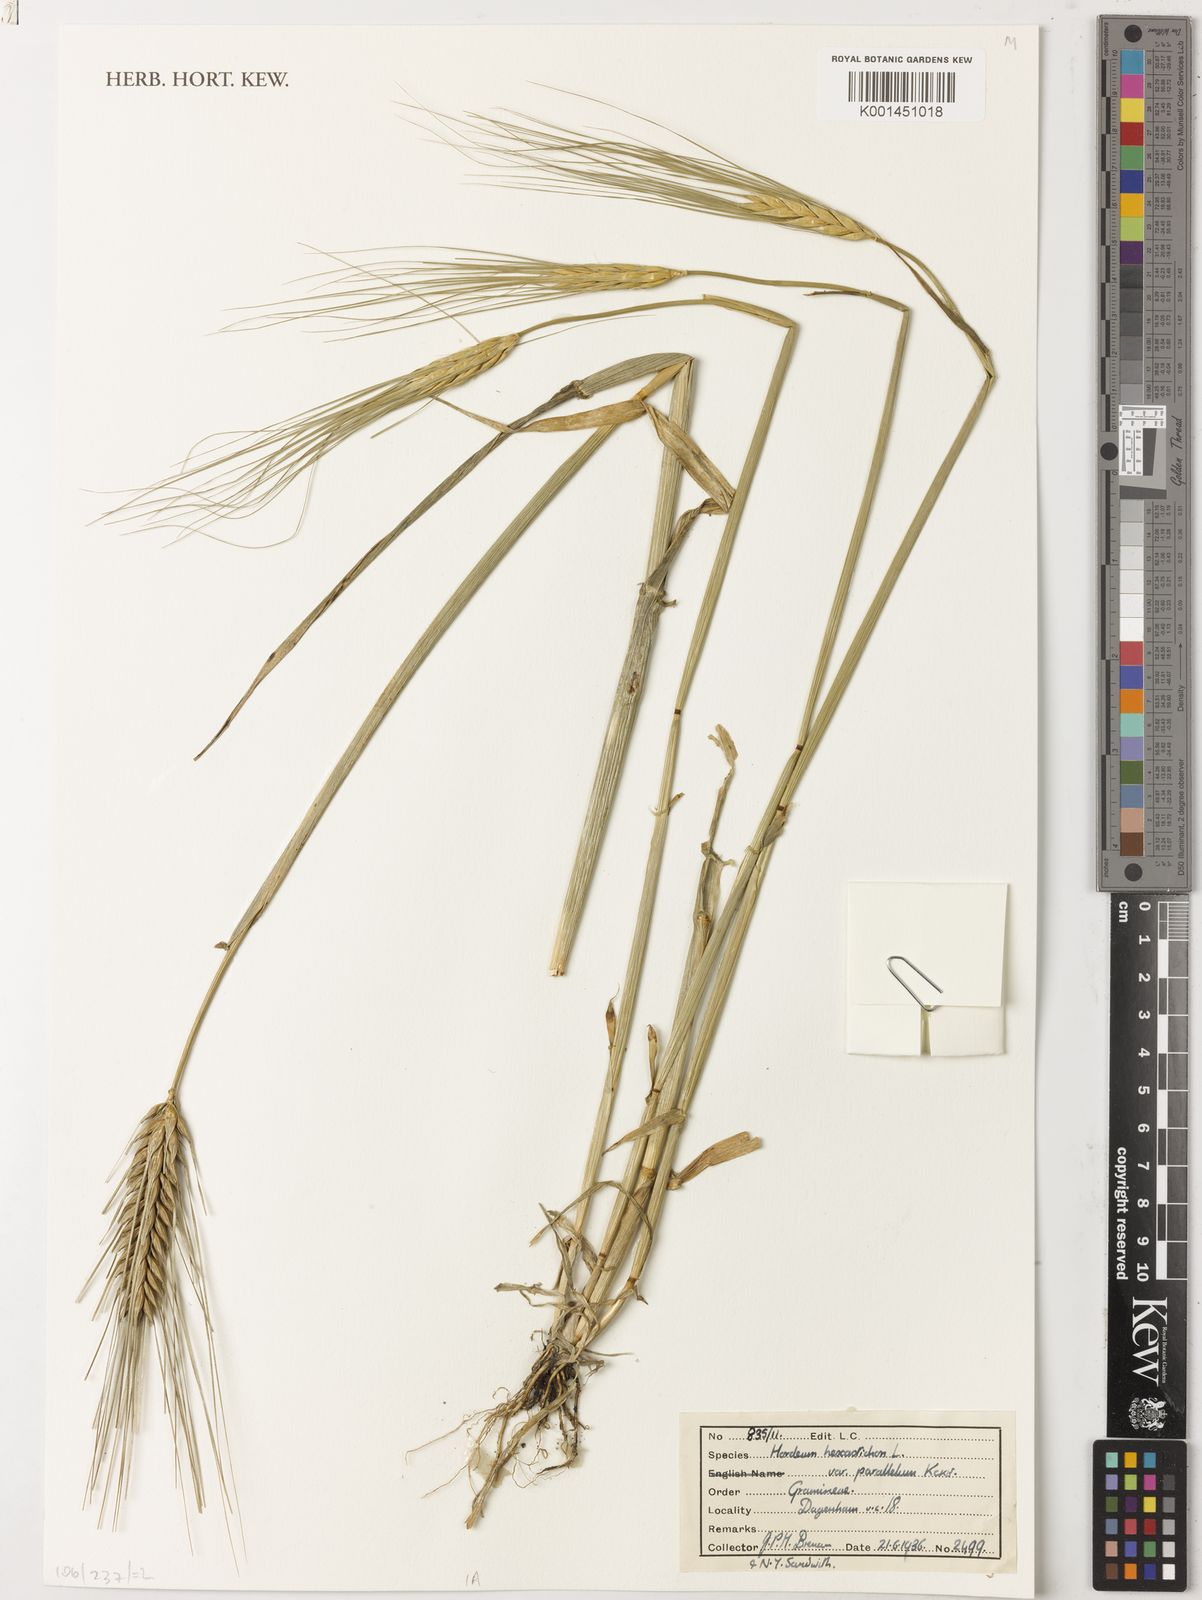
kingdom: Plantae
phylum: Tracheophyta
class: Liliopsida
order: Poales
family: Poaceae
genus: Hordeum
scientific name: Hordeum vulgare
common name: Common barley
